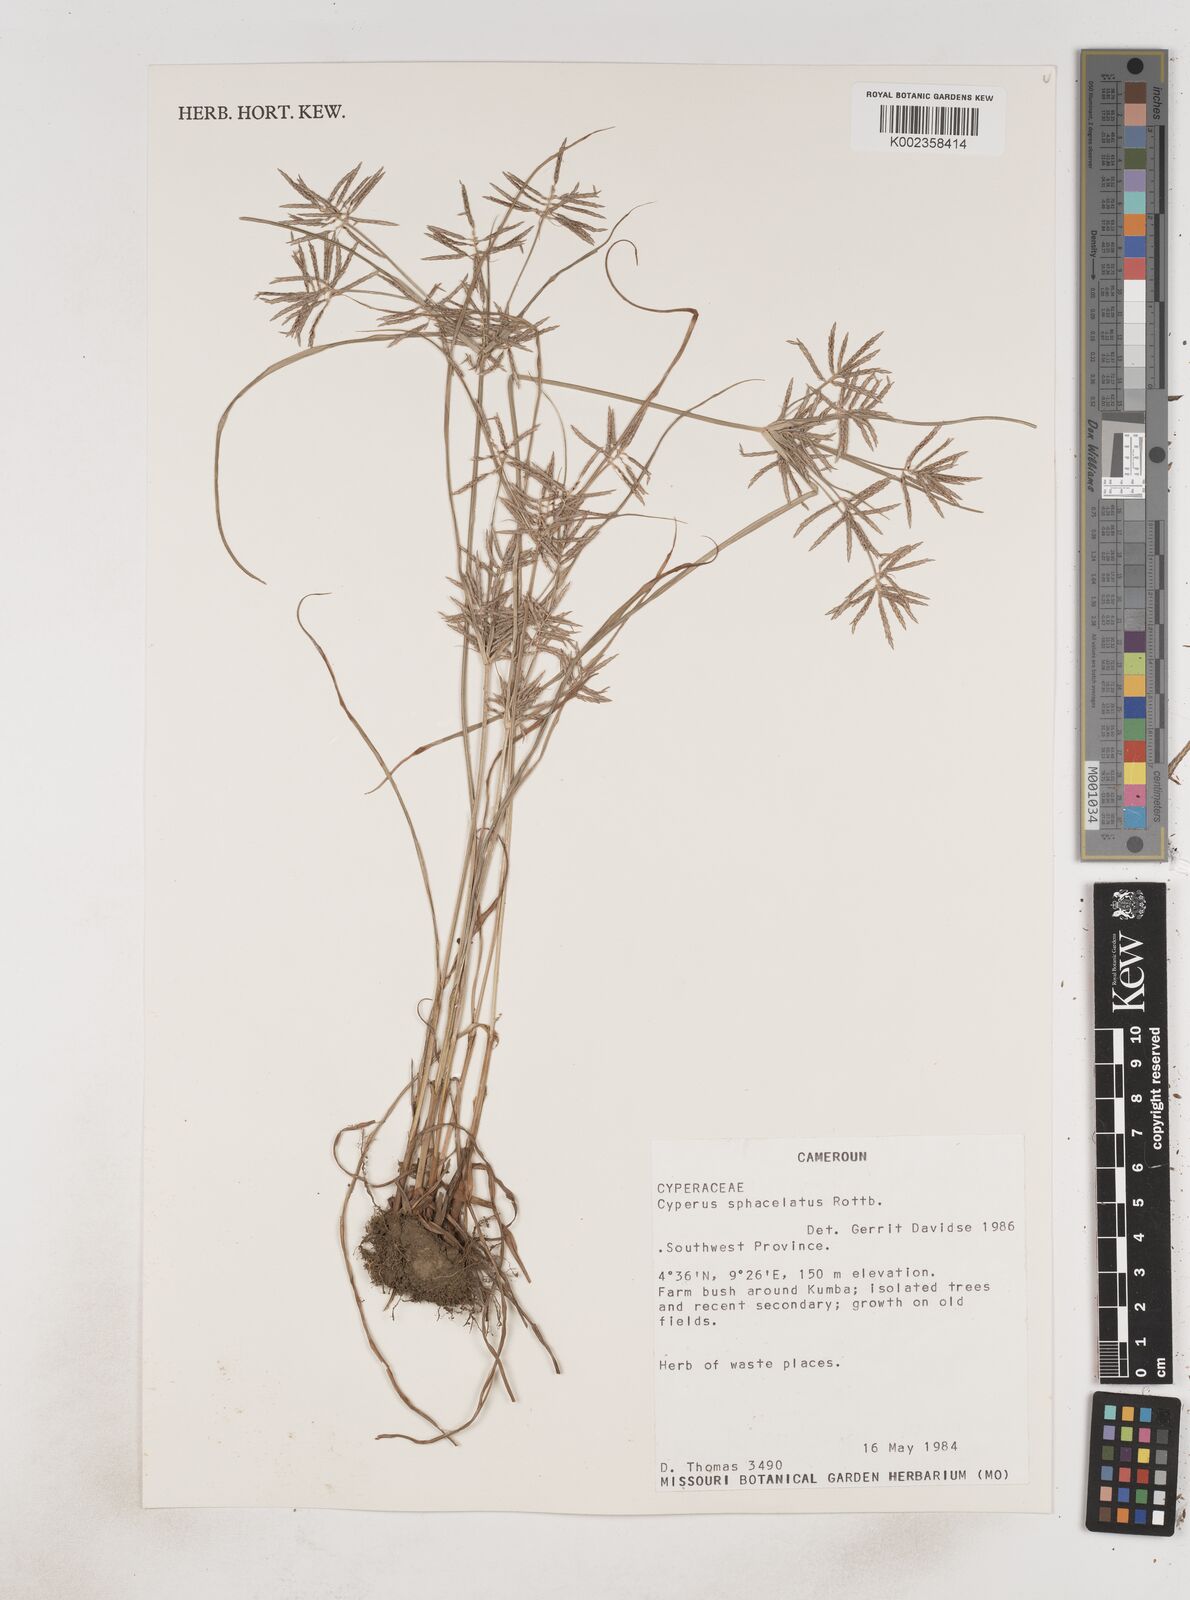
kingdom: Plantae
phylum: Tracheophyta
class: Liliopsida
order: Poales
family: Cyperaceae
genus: Cyperus
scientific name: Cyperus sphacelatus
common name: Roadside flatsedge
